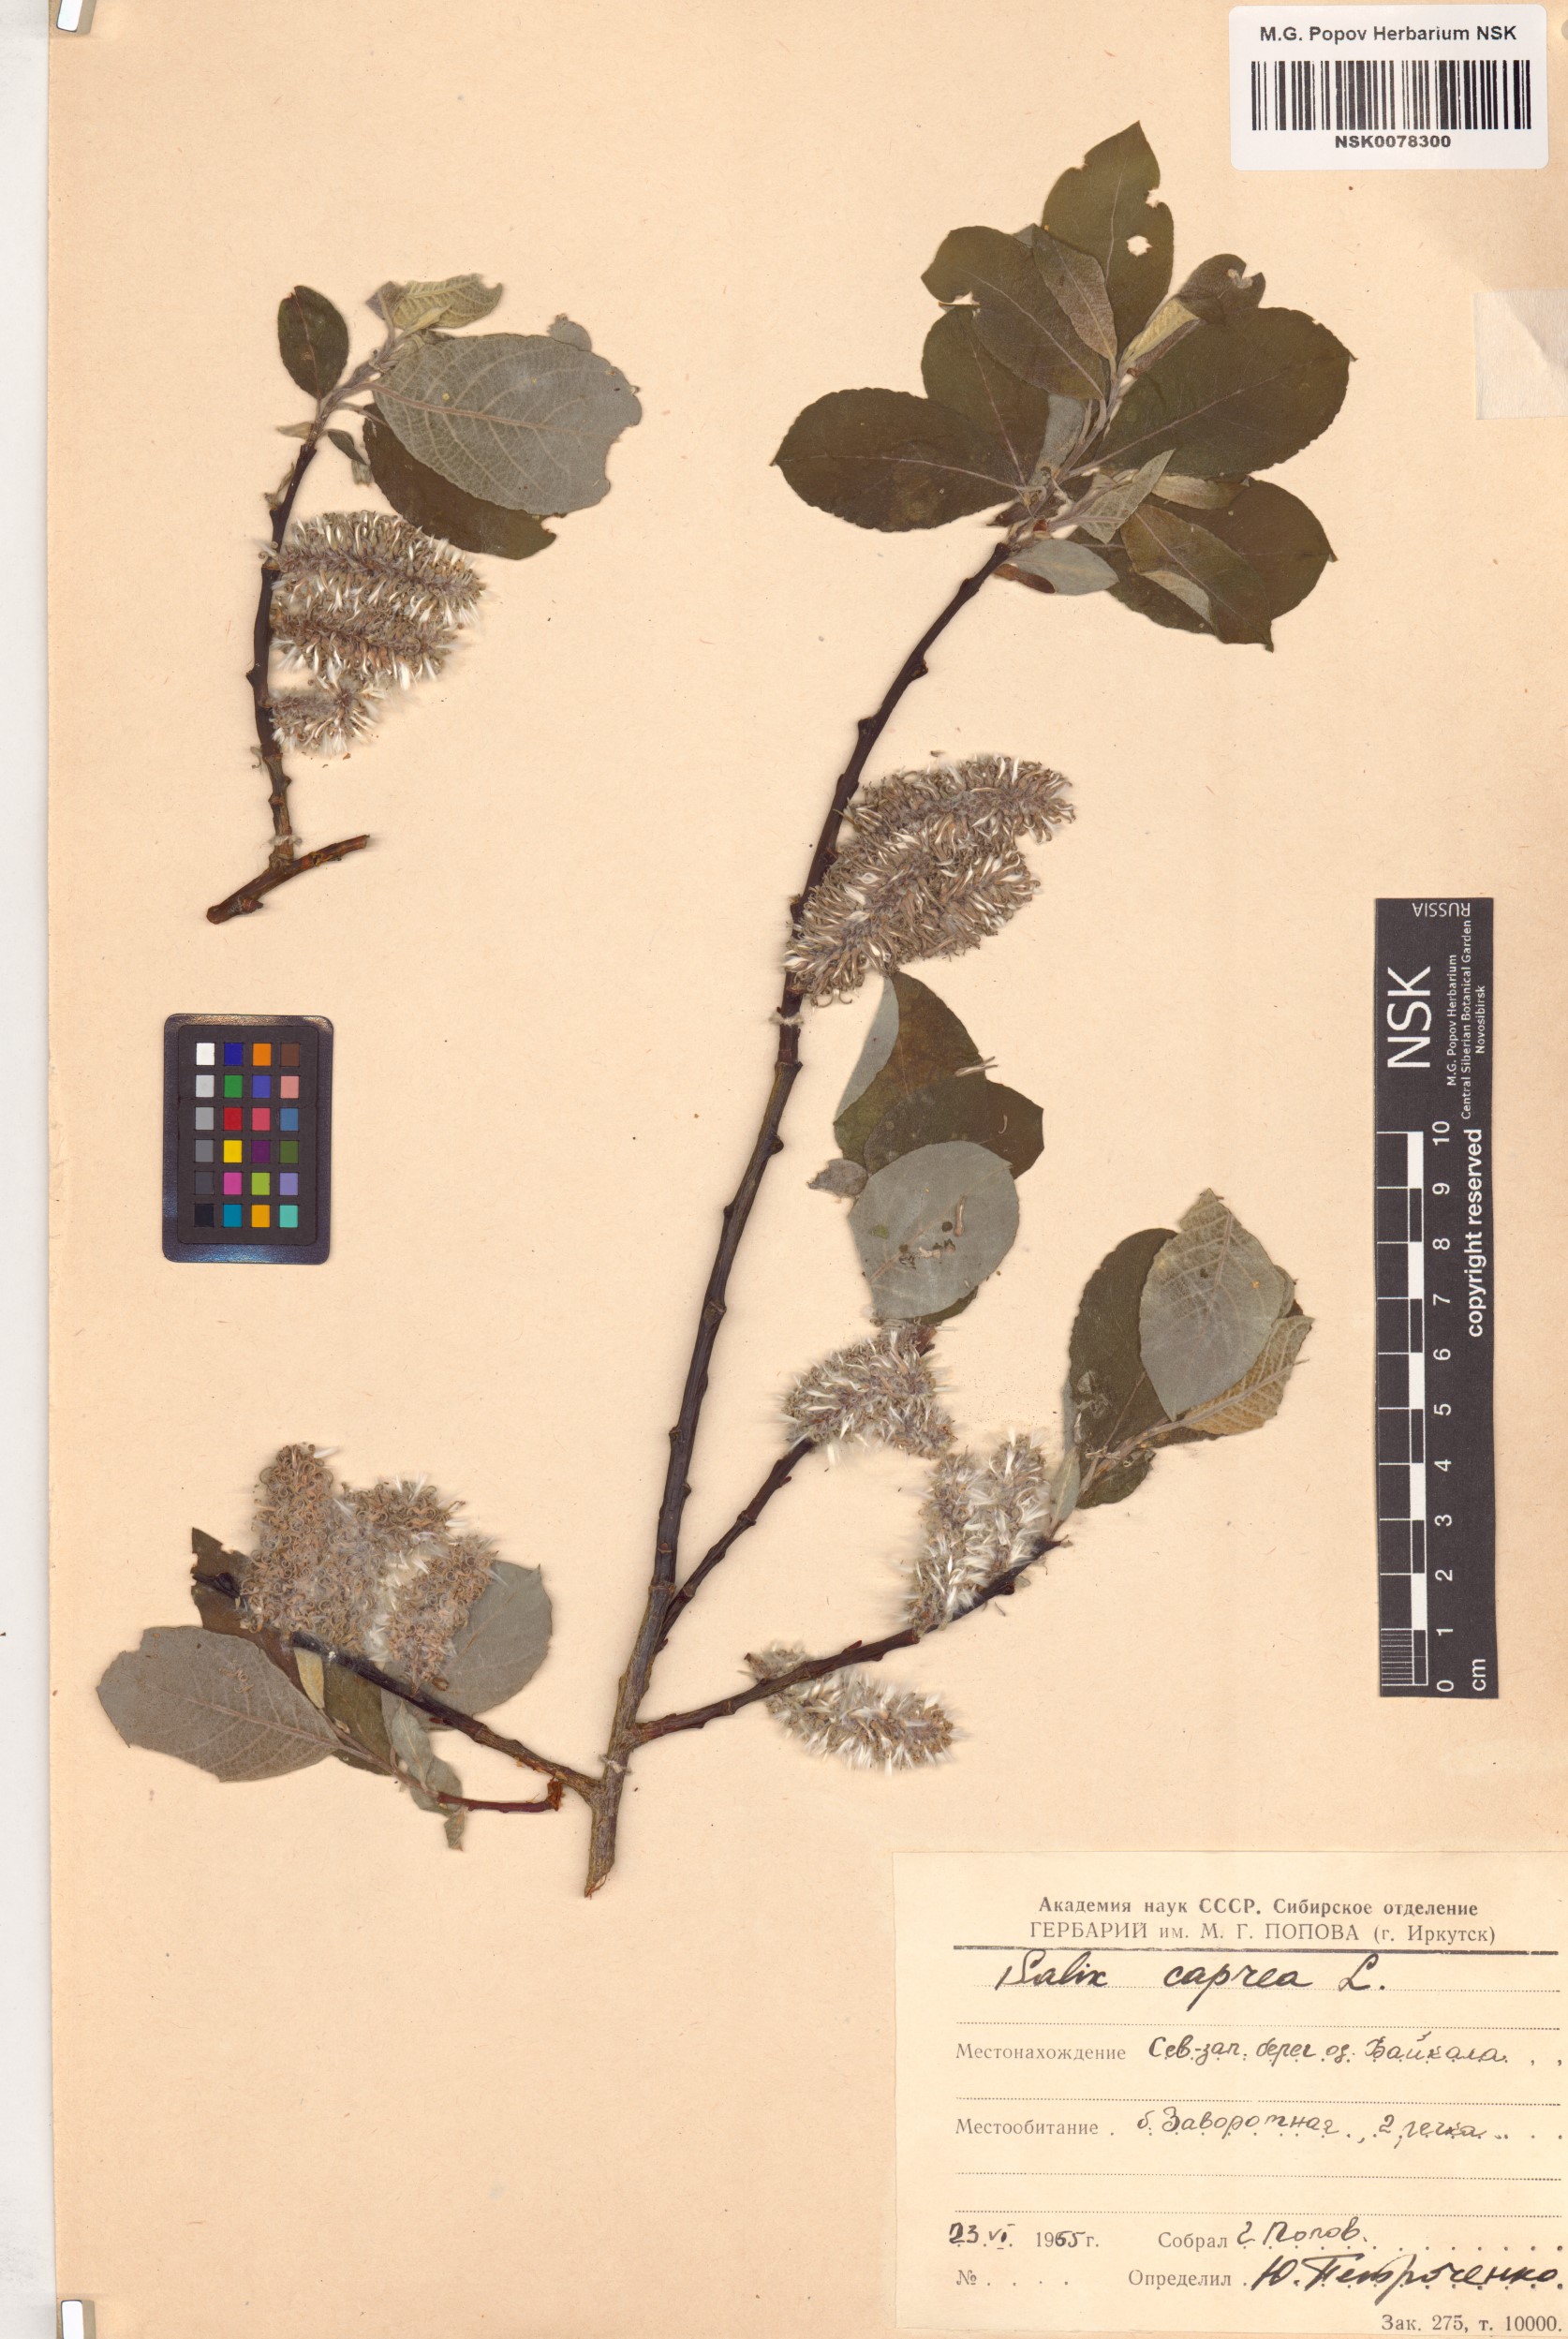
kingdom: Plantae
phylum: Tracheophyta
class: Magnoliopsida
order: Malpighiales
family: Salicaceae
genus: Salix
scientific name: Salix caprea
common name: Goat willow
